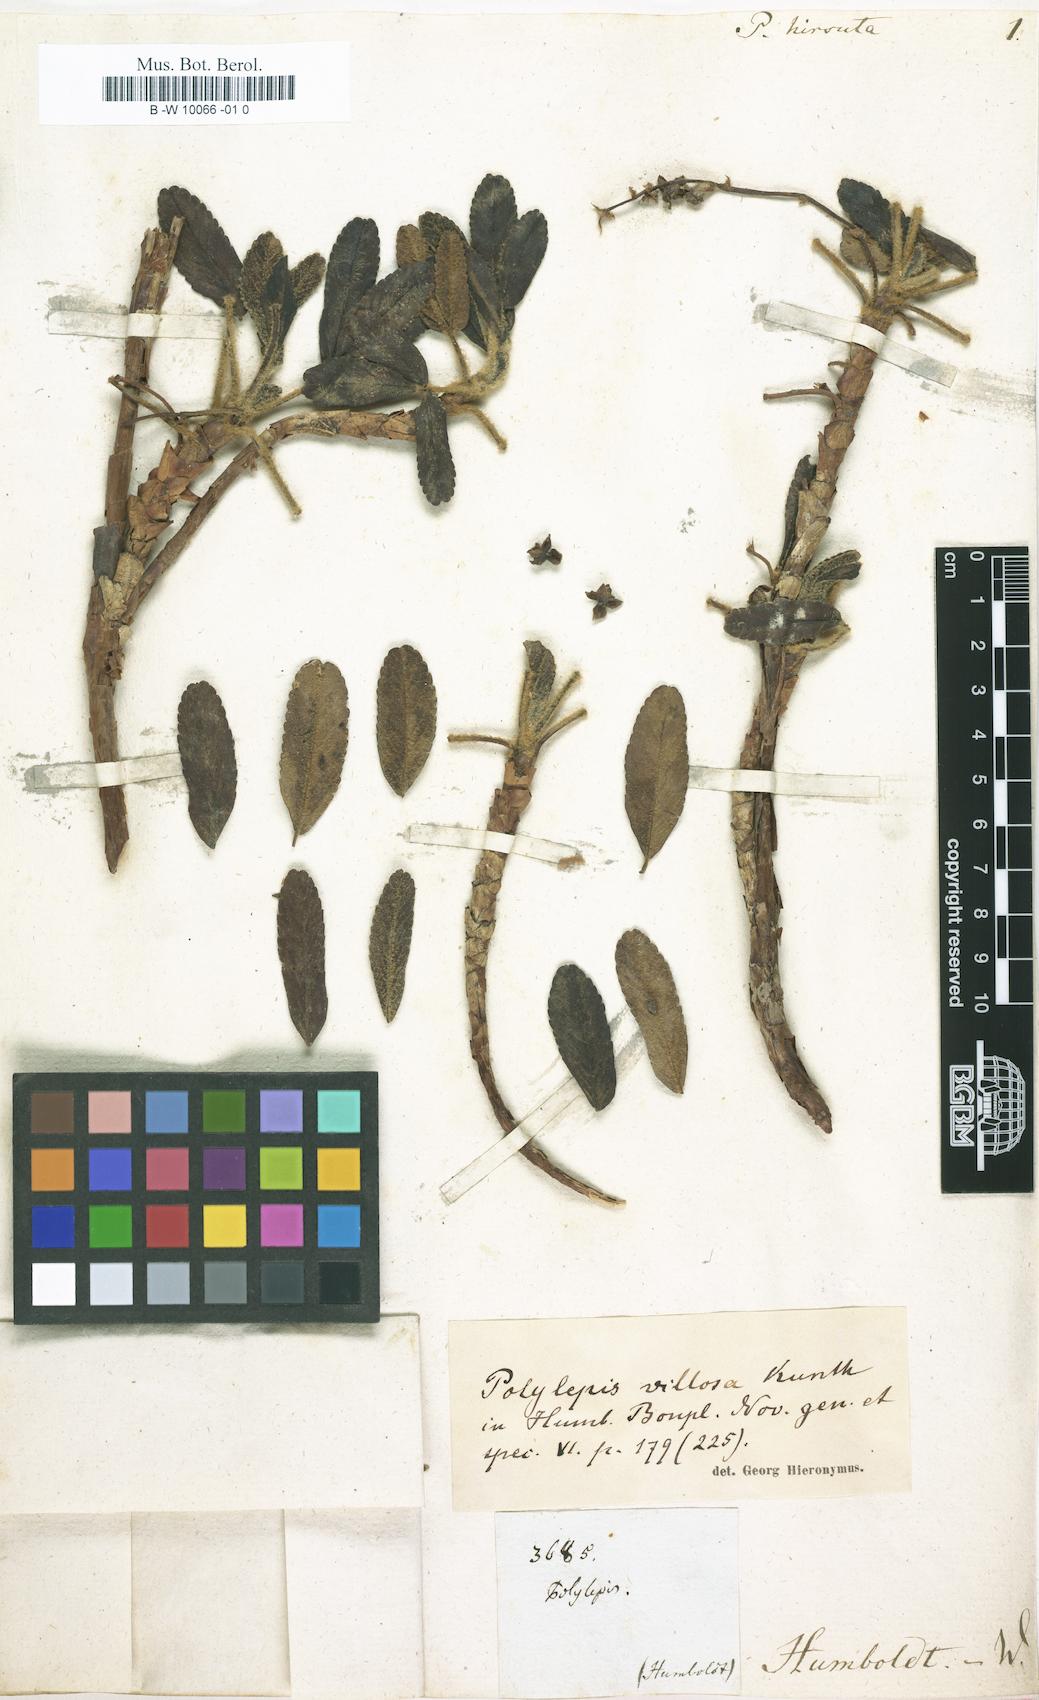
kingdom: Plantae
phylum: Tracheophyta
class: Magnoliopsida
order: Rosales
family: Rosaceae
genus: Polylepis
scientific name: Polylepis
